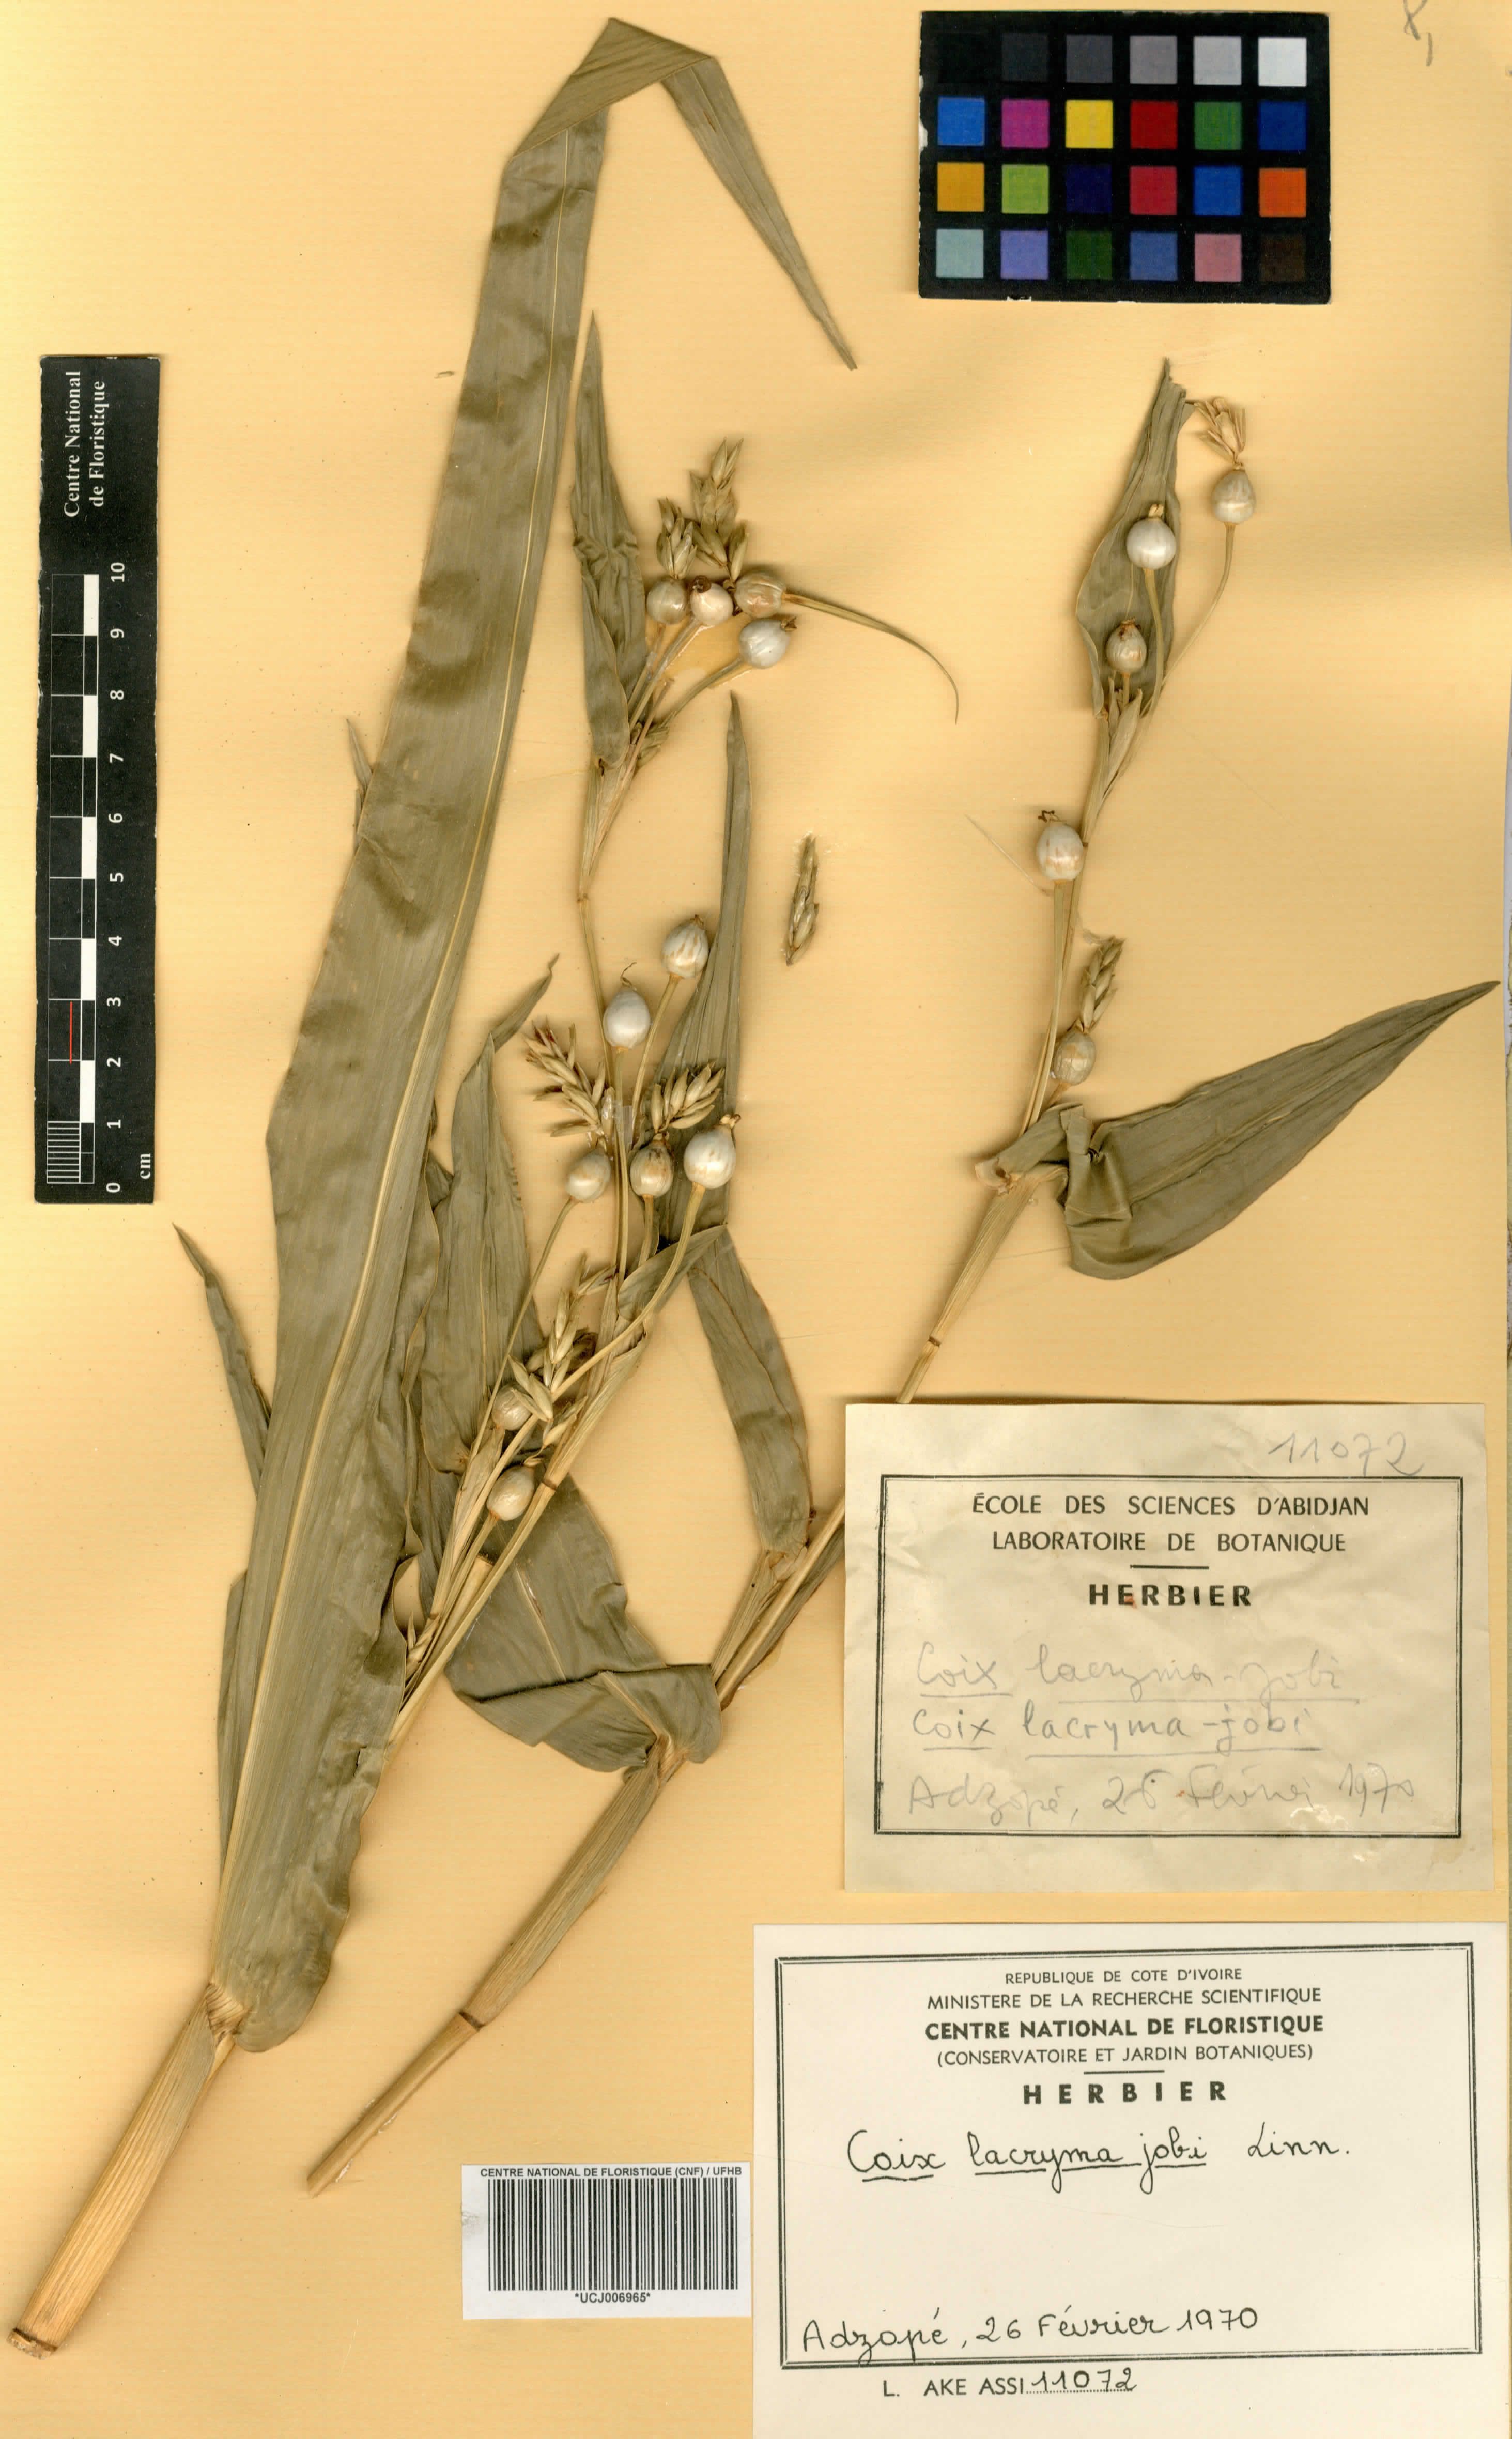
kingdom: Plantae
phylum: Tracheophyta
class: Liliopsida
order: Poales
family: Poaceae
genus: Acroceras
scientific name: Acroceras gabunense
